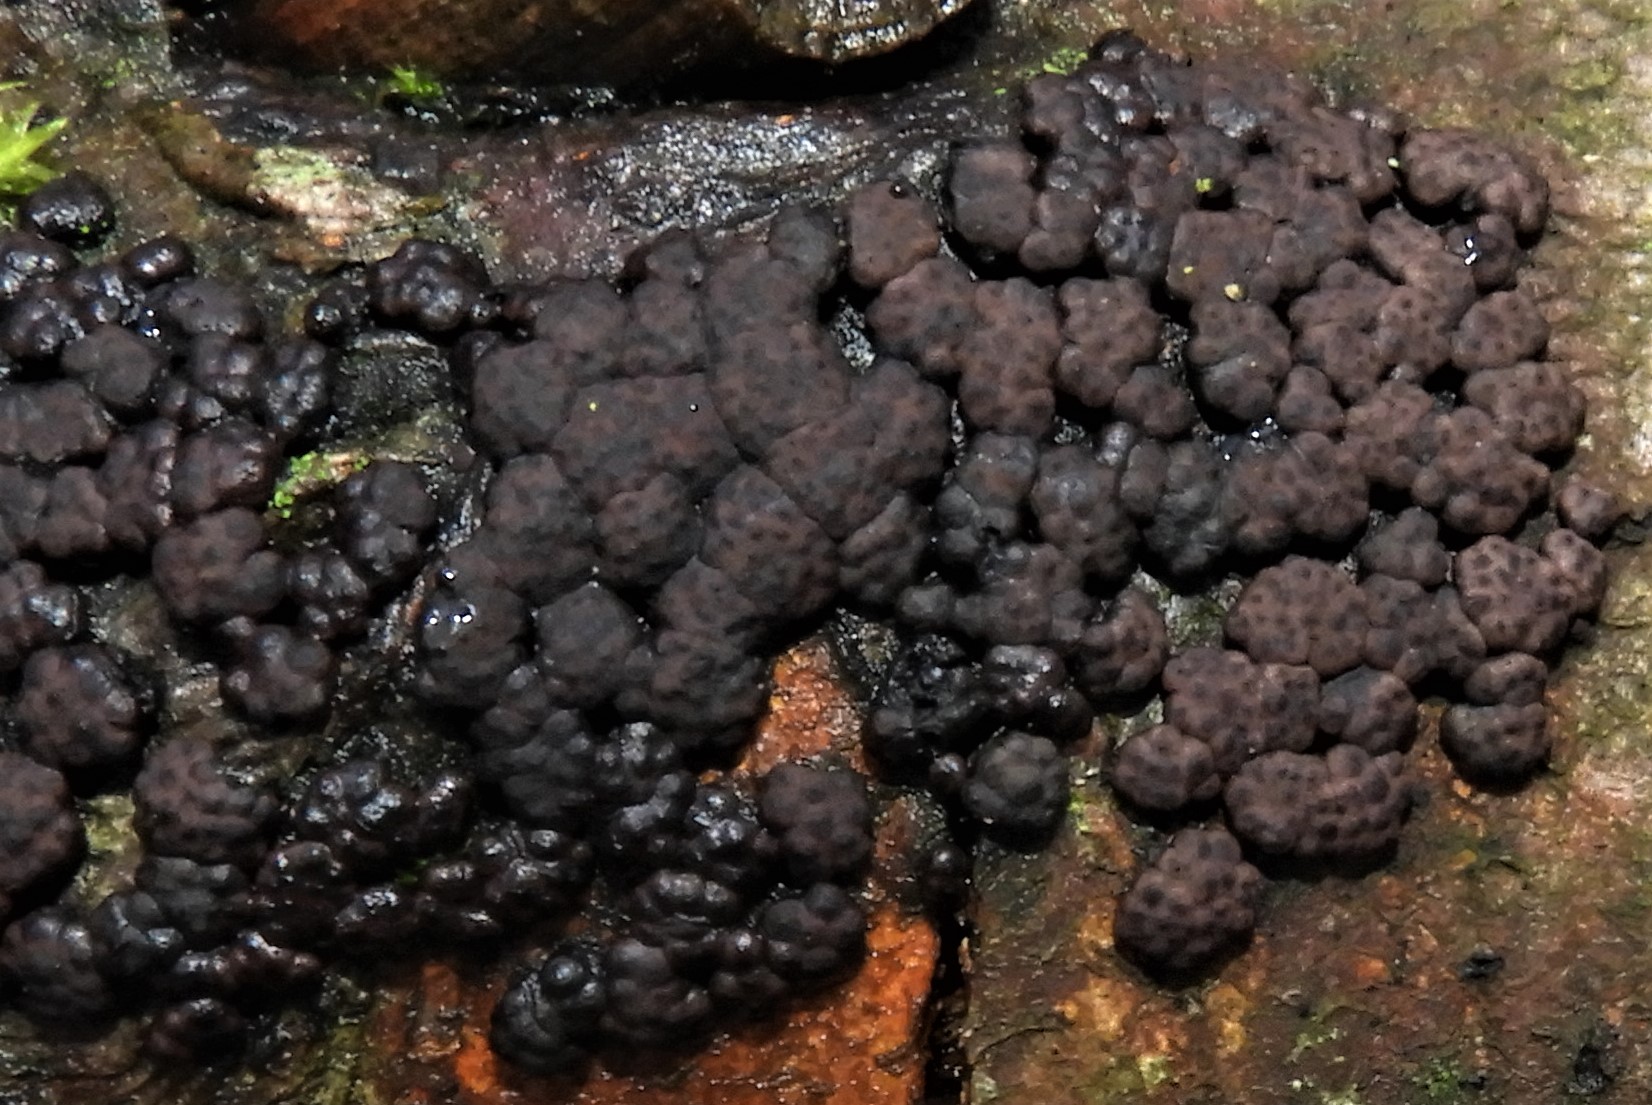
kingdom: Fungi
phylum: Ascomycota
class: Sordariomycetes
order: Xylariales
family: Hypoxylaceae
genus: Jackrogersella
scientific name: Jackrogersella cohaerens
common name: sammenflydende kulbær
